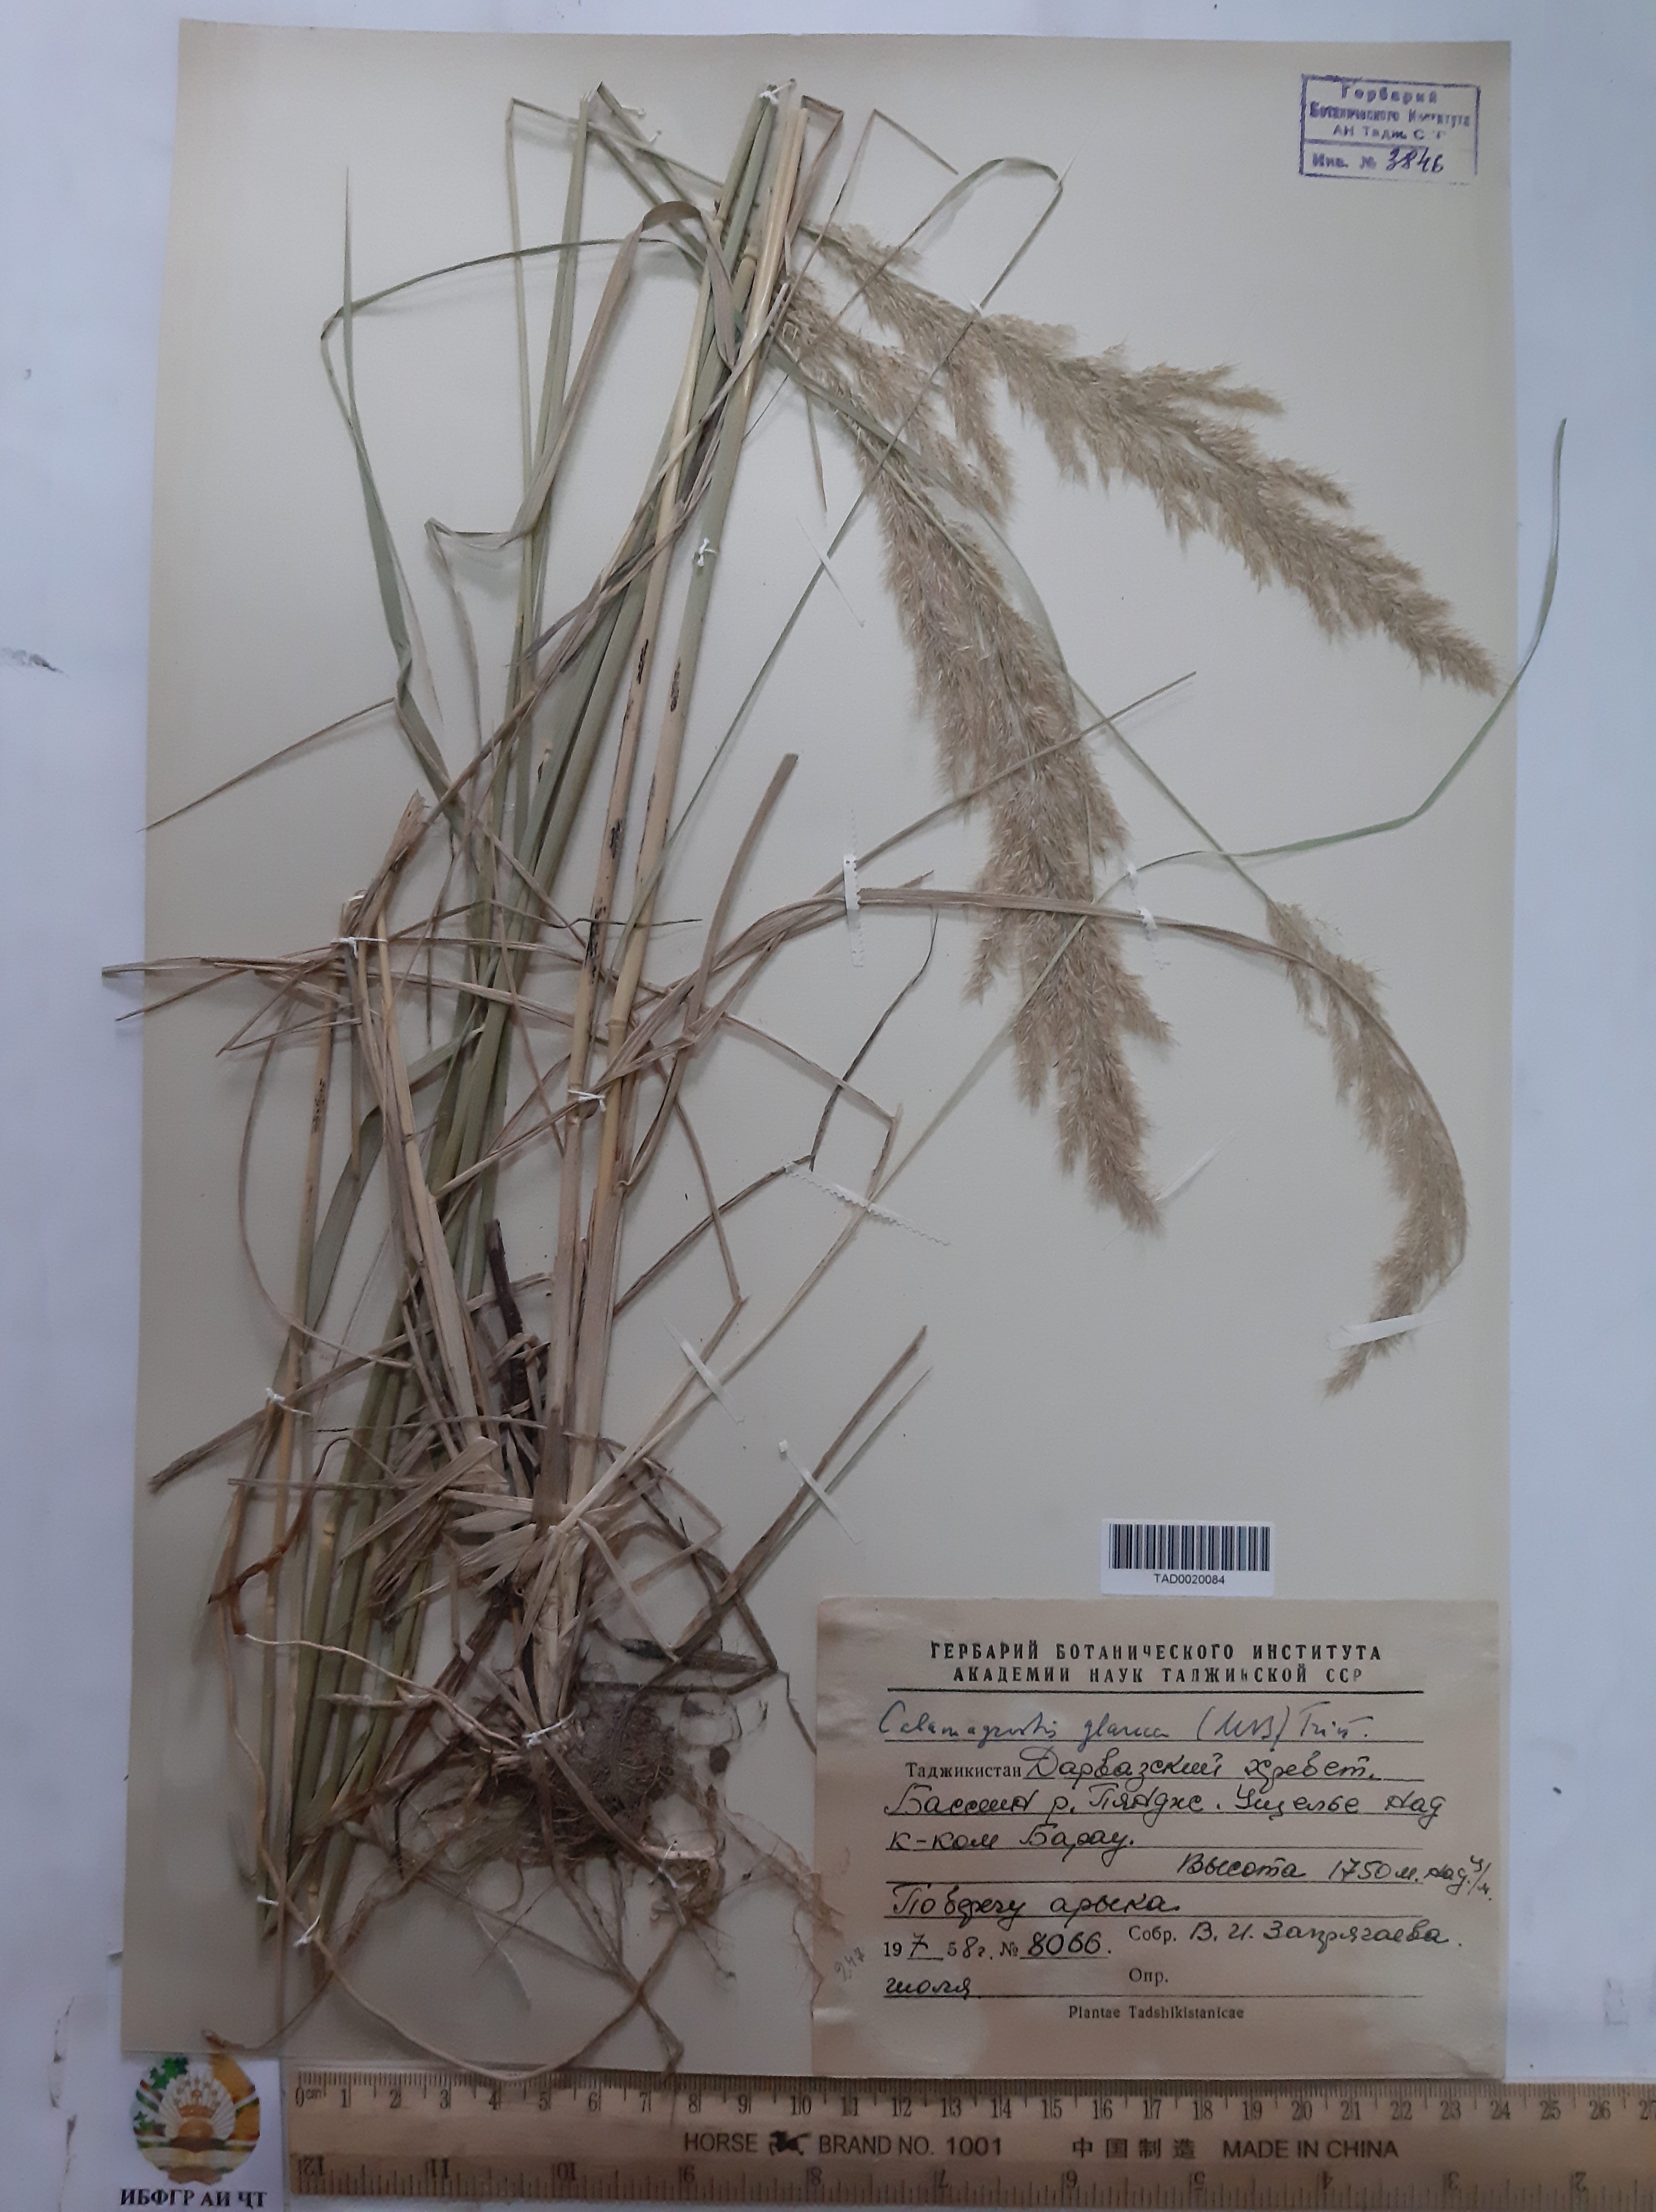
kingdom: Plantae
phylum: Tracheophyta
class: Liliopsida
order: Poales
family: Poaceae
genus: Calamagrostis
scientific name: Calamagrostis pseudophragmites
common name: Coastal small-reed
